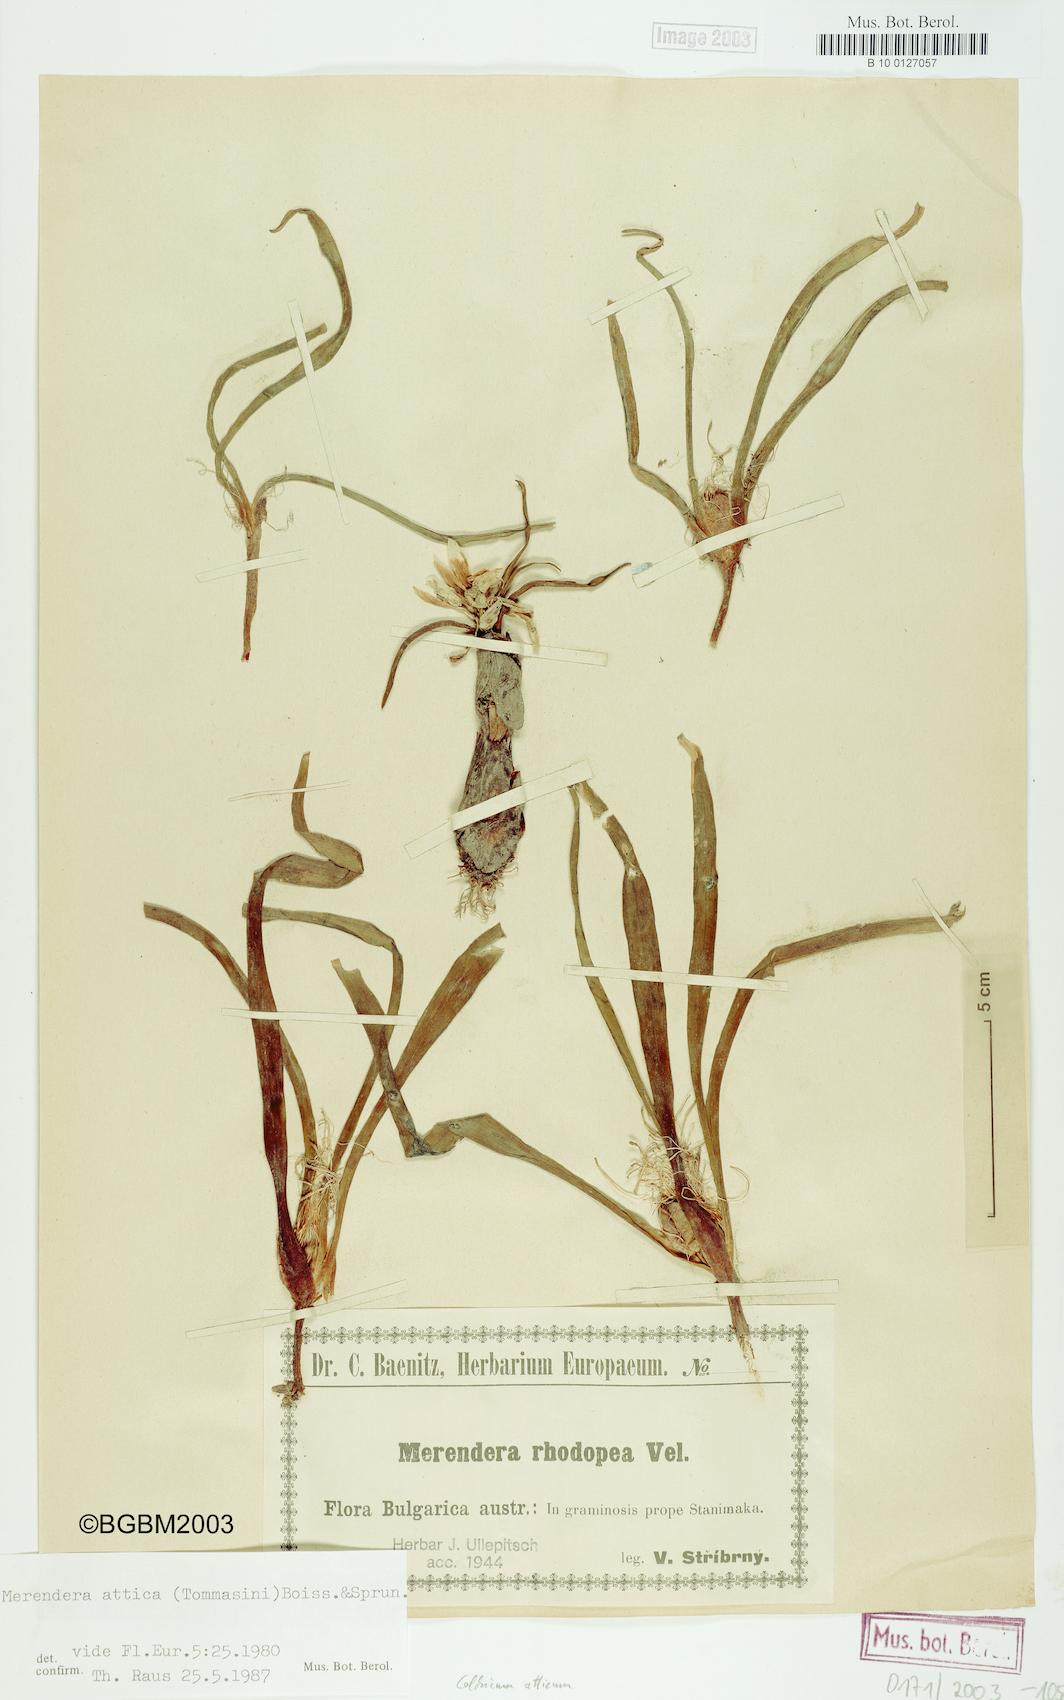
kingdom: Plantae
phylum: Tracheophyta
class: Liliopsida
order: Liliales
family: Colchicaceae
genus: Colchicum
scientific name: Colchicum atticum
